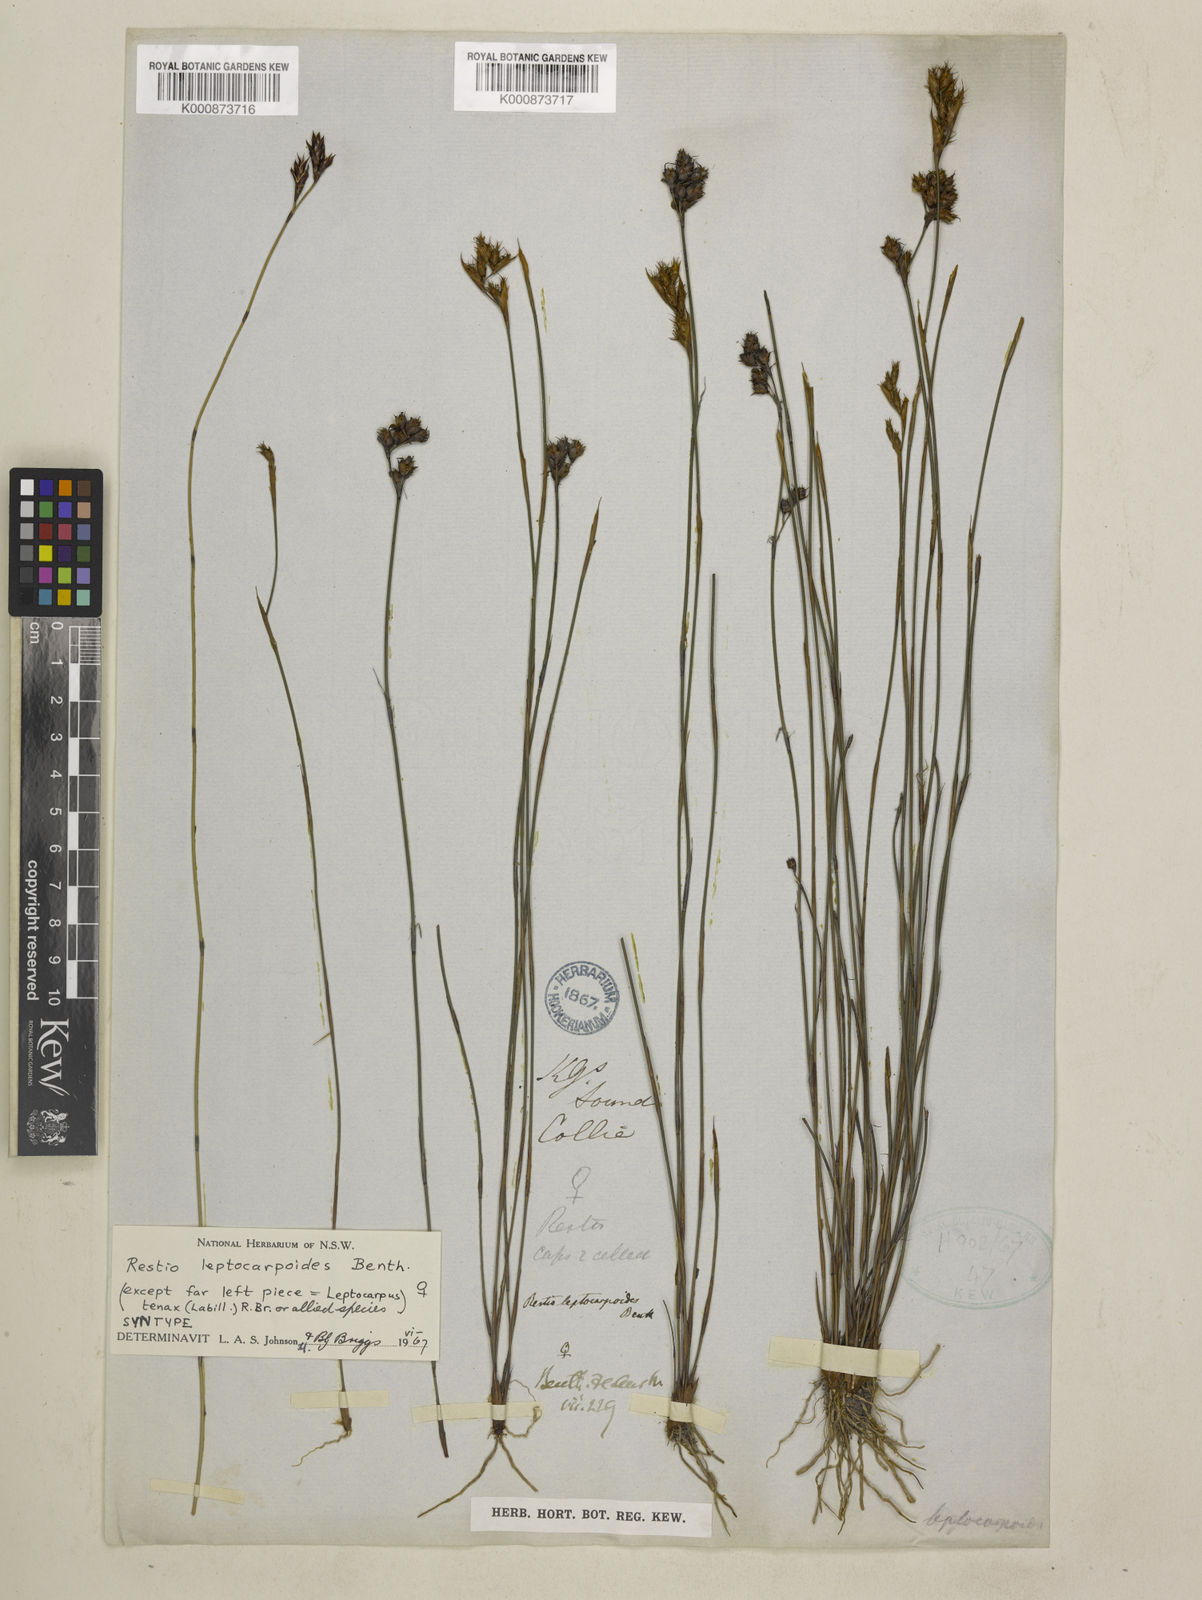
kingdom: Plantae
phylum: Tracheophyta
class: Liliopsida
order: Poales
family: Restionaceae
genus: Cytogonidium
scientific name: Cytogonidium leptocarpoides
